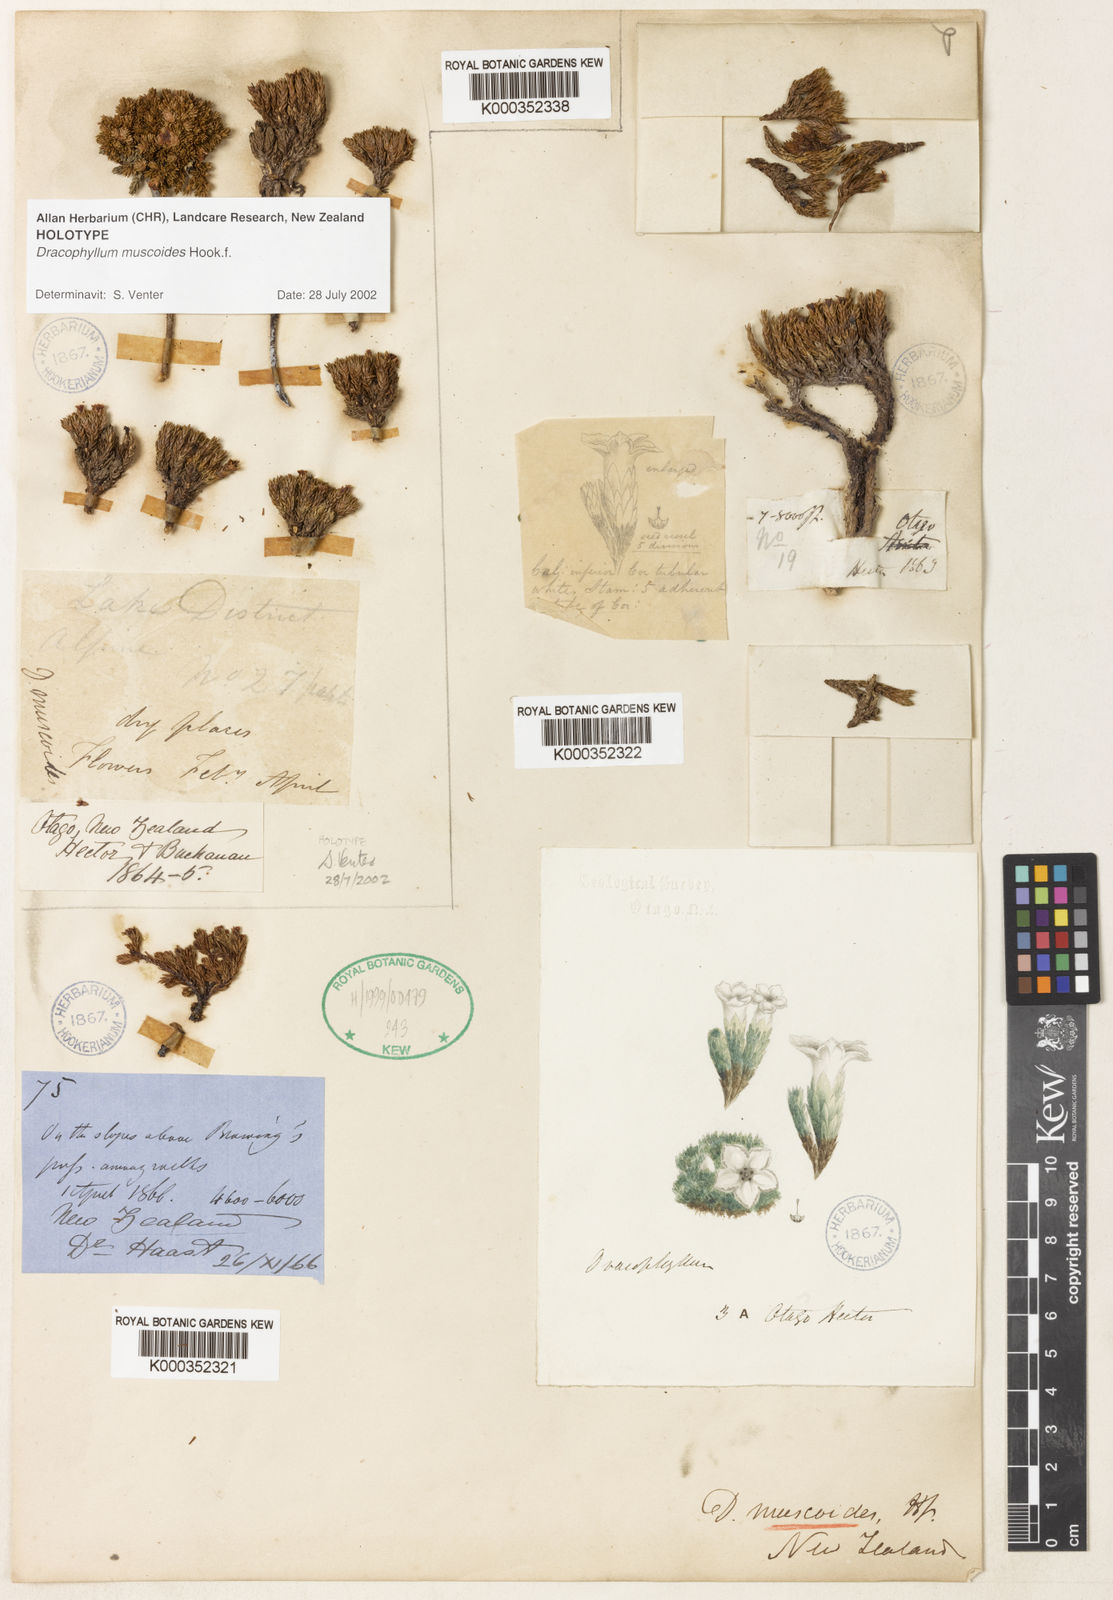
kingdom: Plantae
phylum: Tracheophyta
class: Magnoliopsida
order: Ericales
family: Ericaceae
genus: Dracophyllum
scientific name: Dracophyllum muscoides
